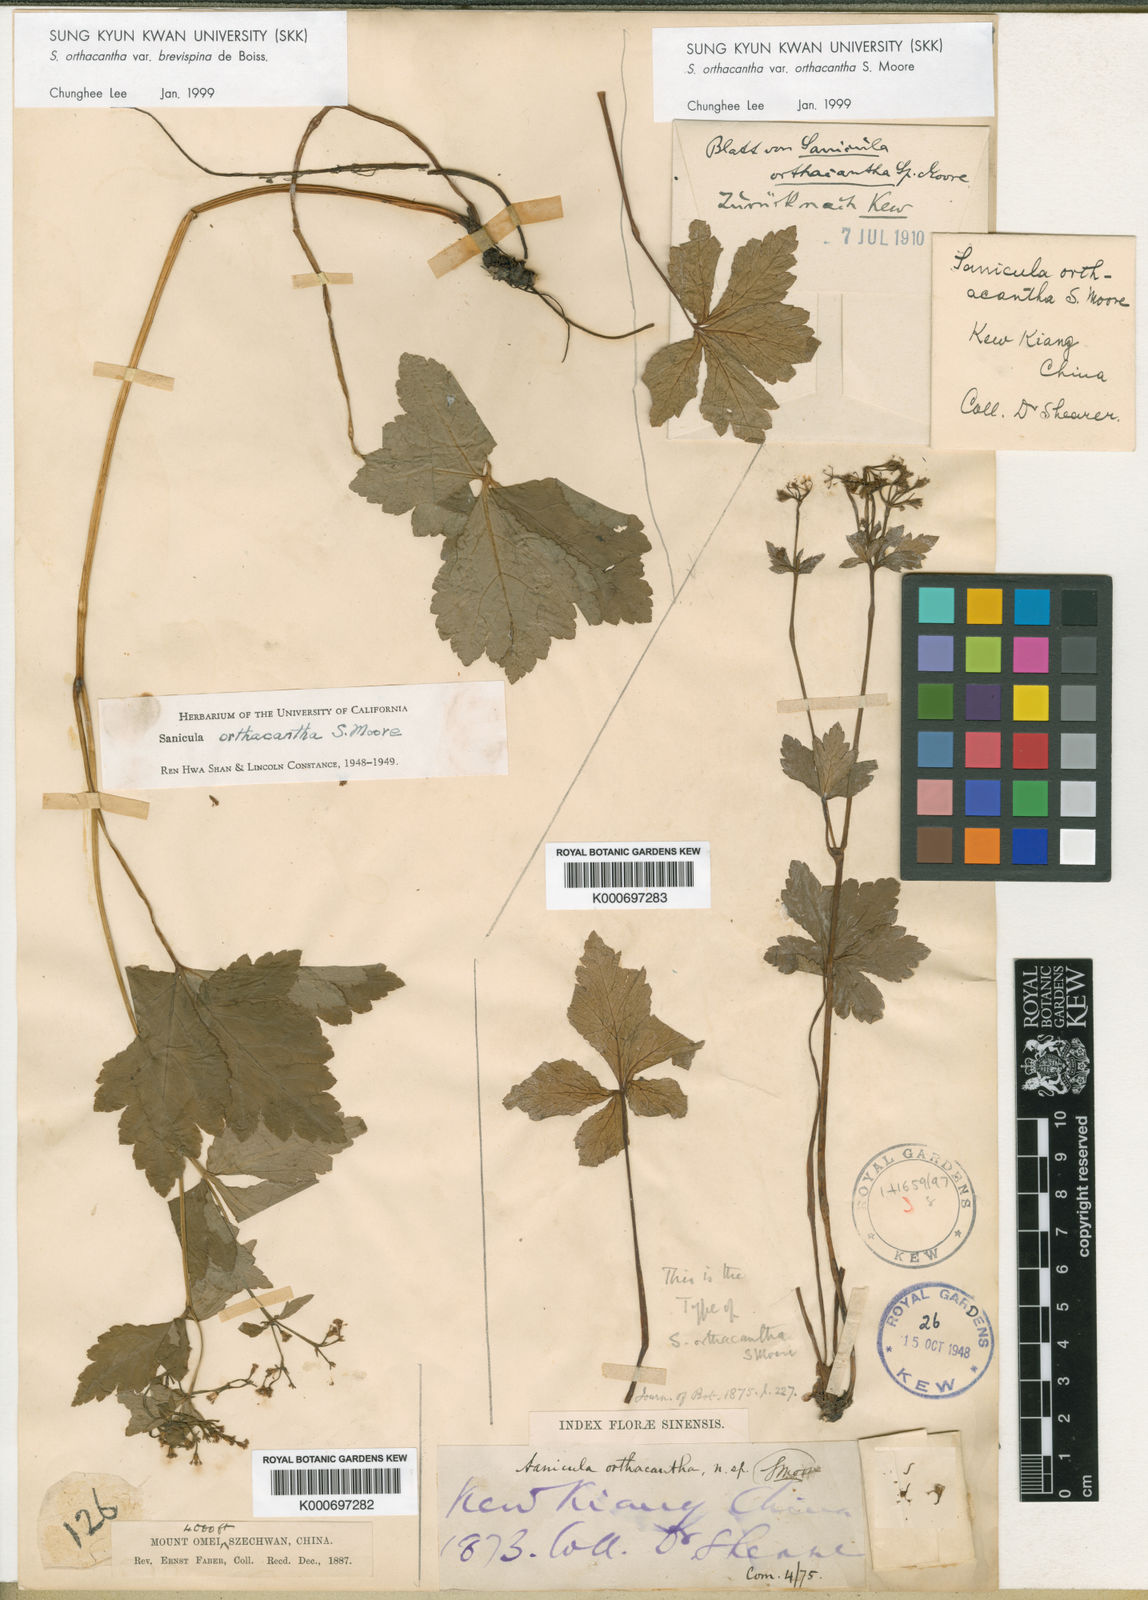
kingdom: Plantae
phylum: Tracheophyta
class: Magnoliopsida
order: Apiales
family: Apiaceae
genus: Sanicula
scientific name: Sanicula orthacantha
